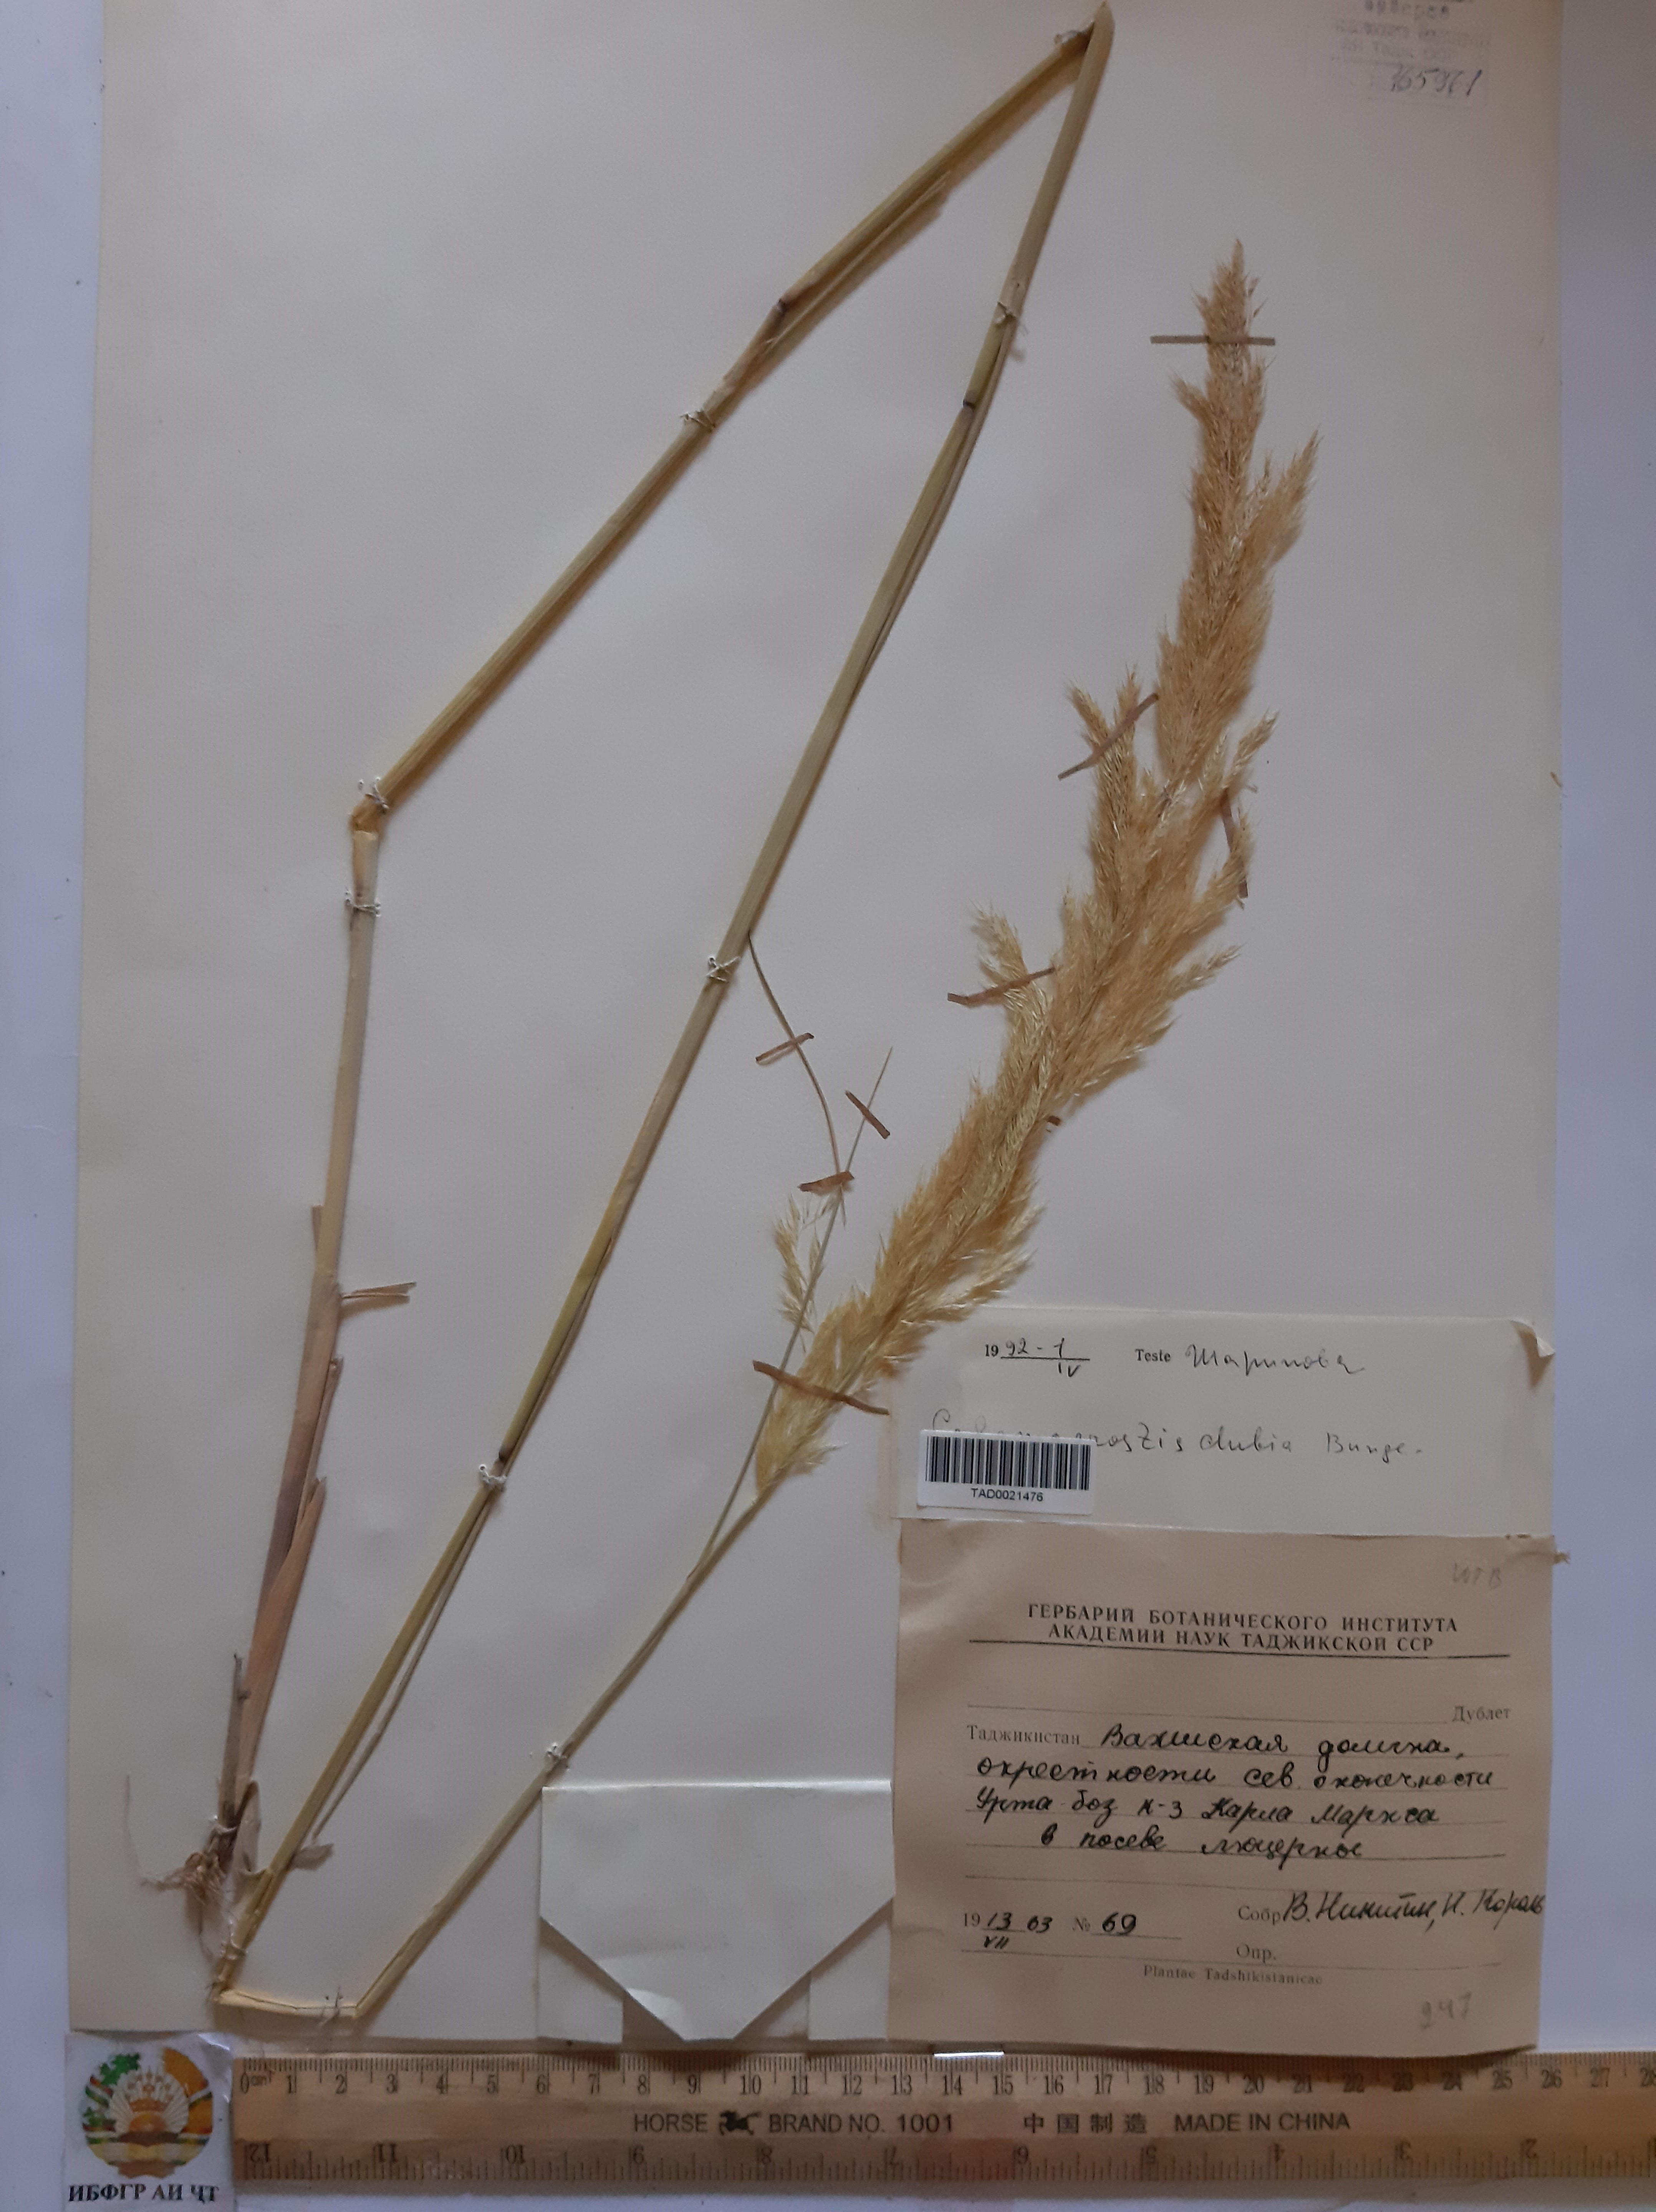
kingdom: Plantae
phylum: Tracheophyta
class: Liliopsida
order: Poales
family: Poaceae
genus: Agrostis
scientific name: Agrostis
